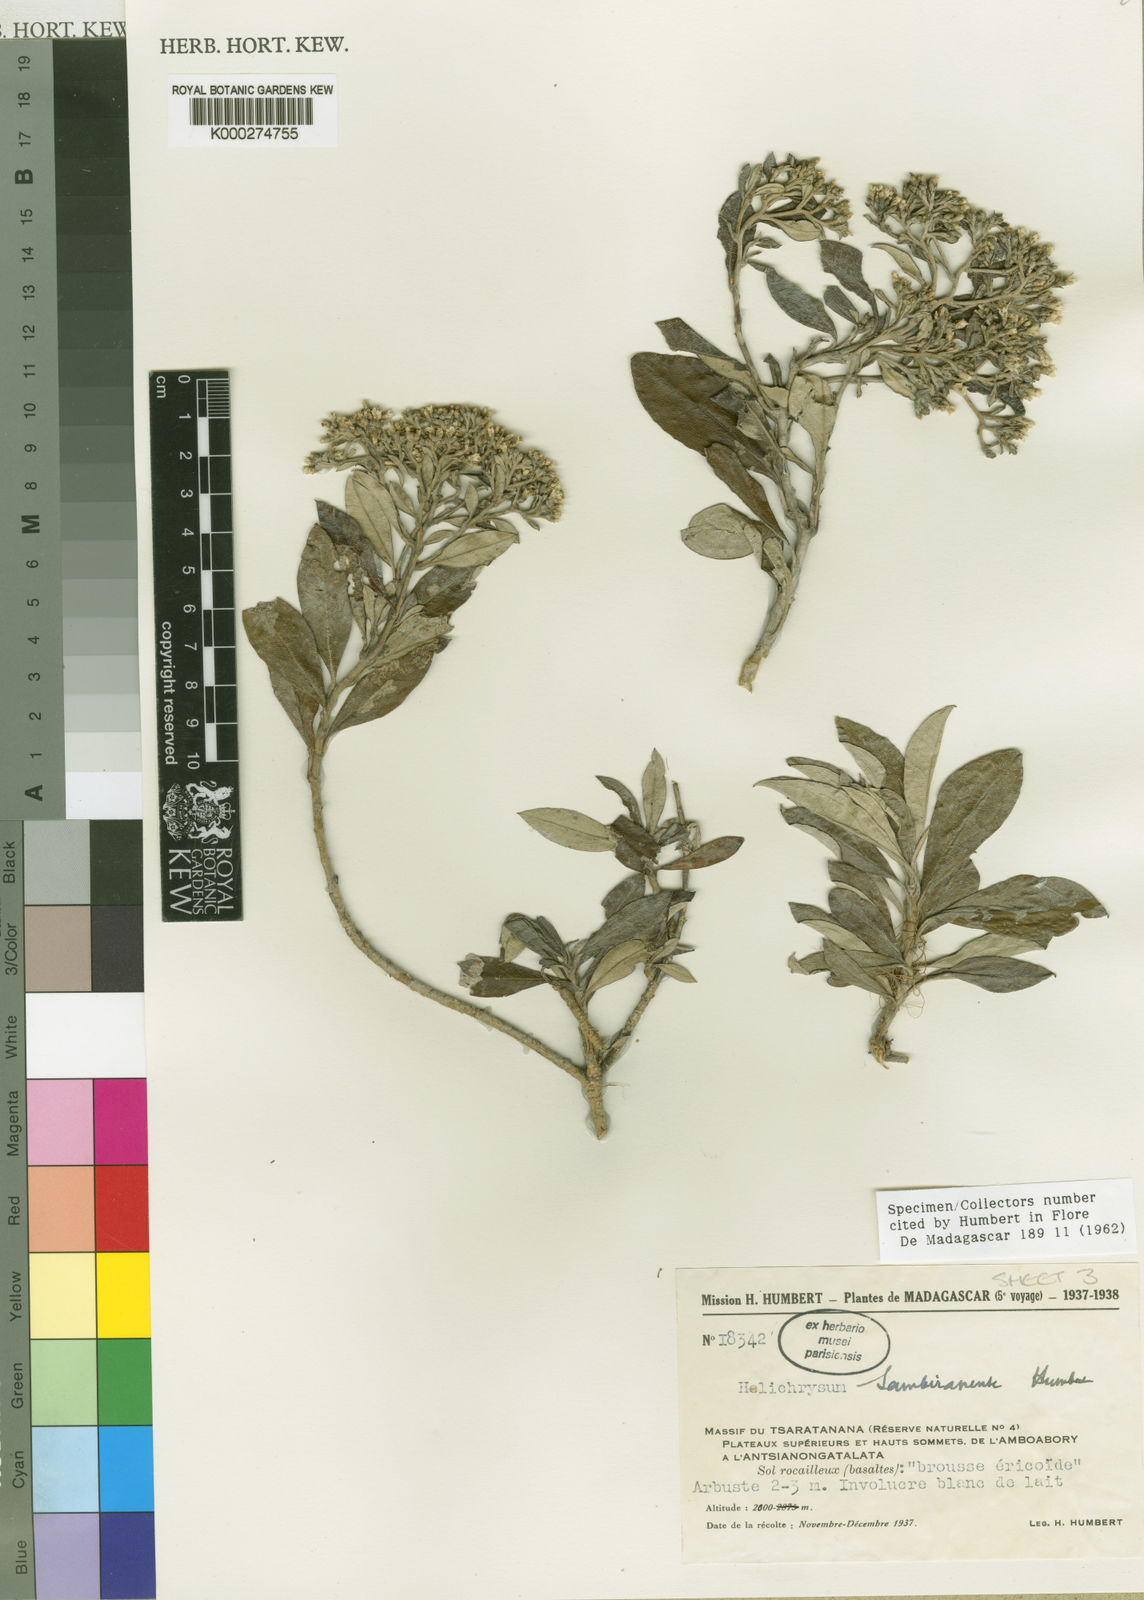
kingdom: Plantae
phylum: Tracheophyta
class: Magnoliopsida
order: Asterales
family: Asteraceae
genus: Helichrysum
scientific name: Helichrysum cordifolium
